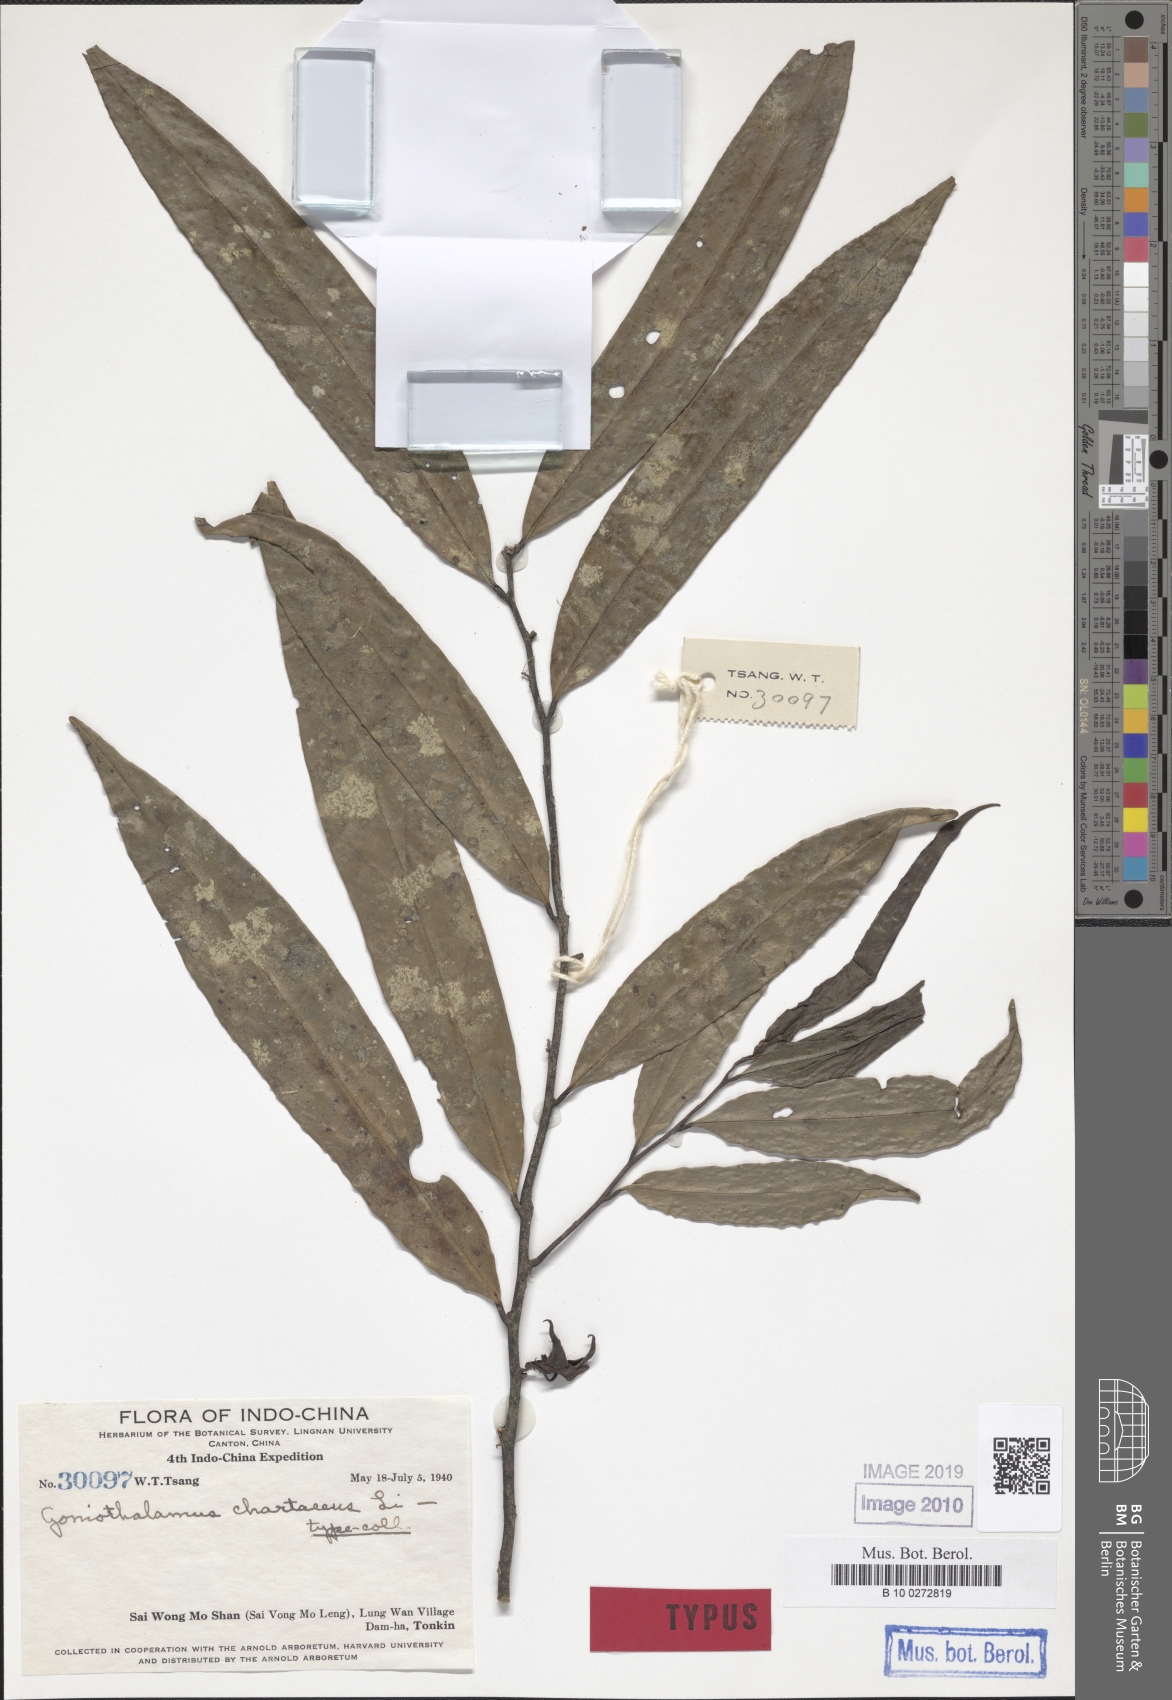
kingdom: Plantae
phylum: Tracheophyta
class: Magnoliopsida
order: Magnoliales
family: Annonaceae
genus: Goniothalamus
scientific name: Goniothalamus chartaceus
